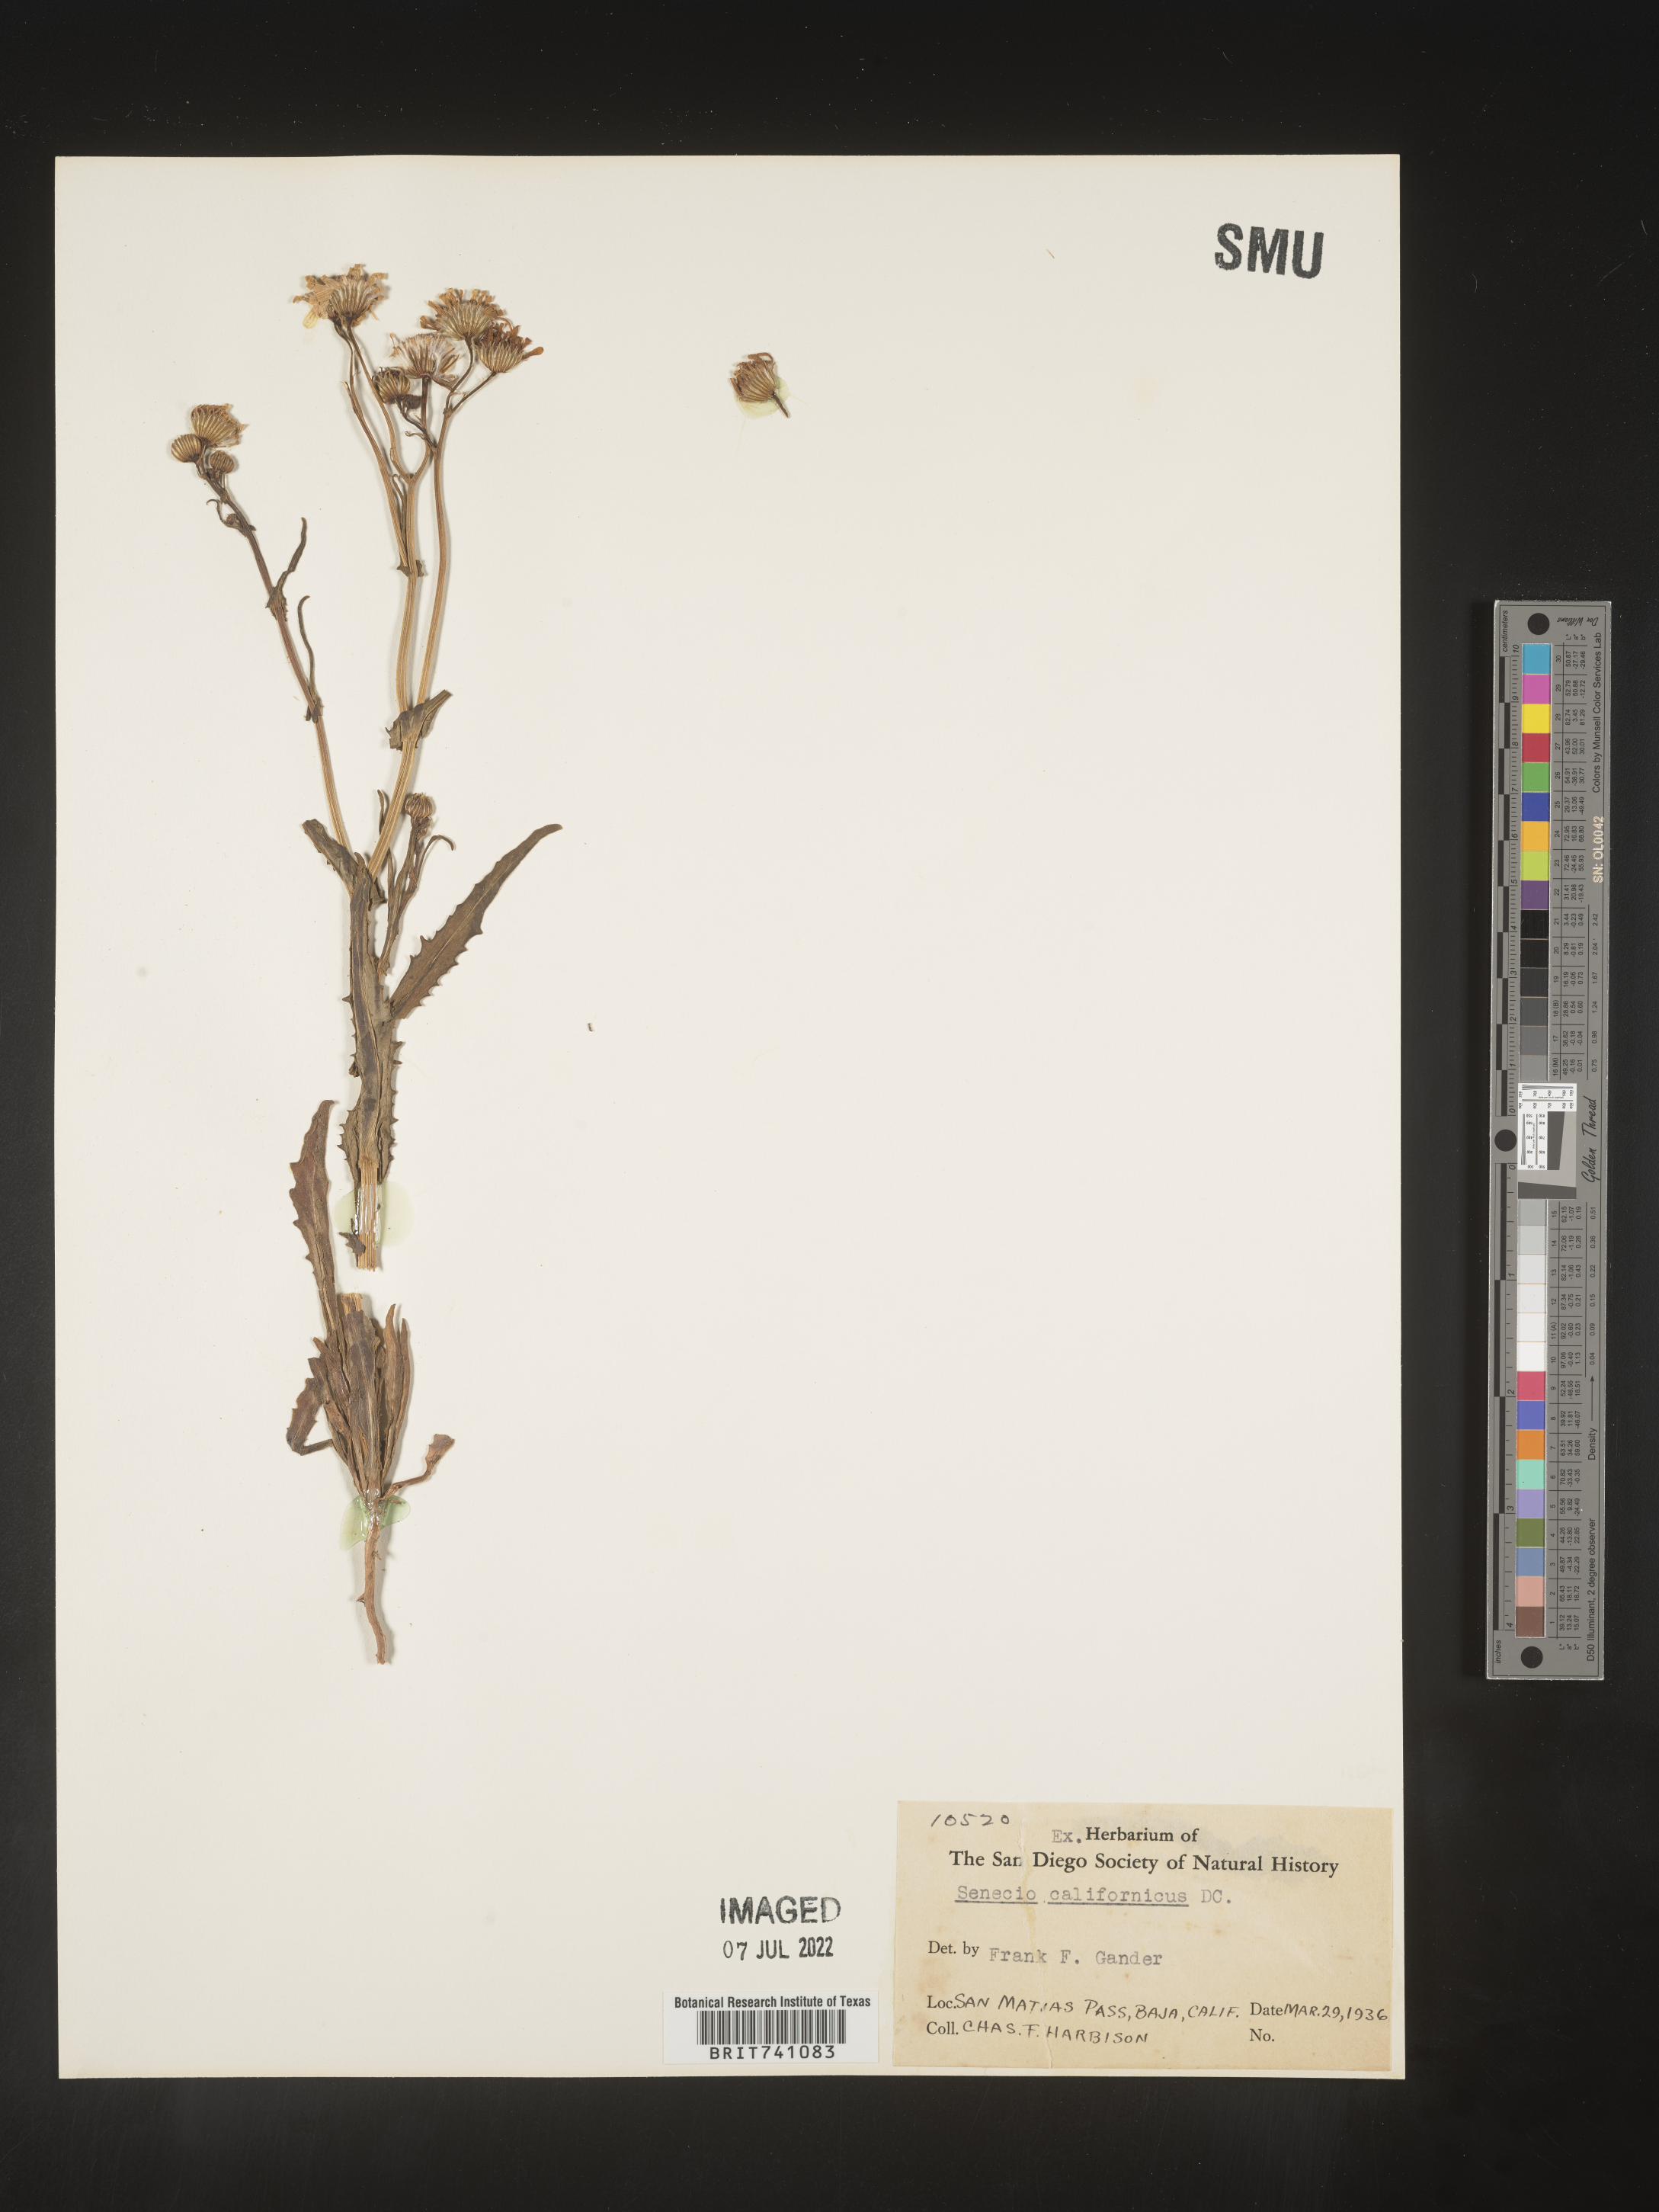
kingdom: Plantae
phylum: Tracheophyta
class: Magnoliopsida
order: Asterales
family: Asteraceae
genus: Senecio
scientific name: Senecio
